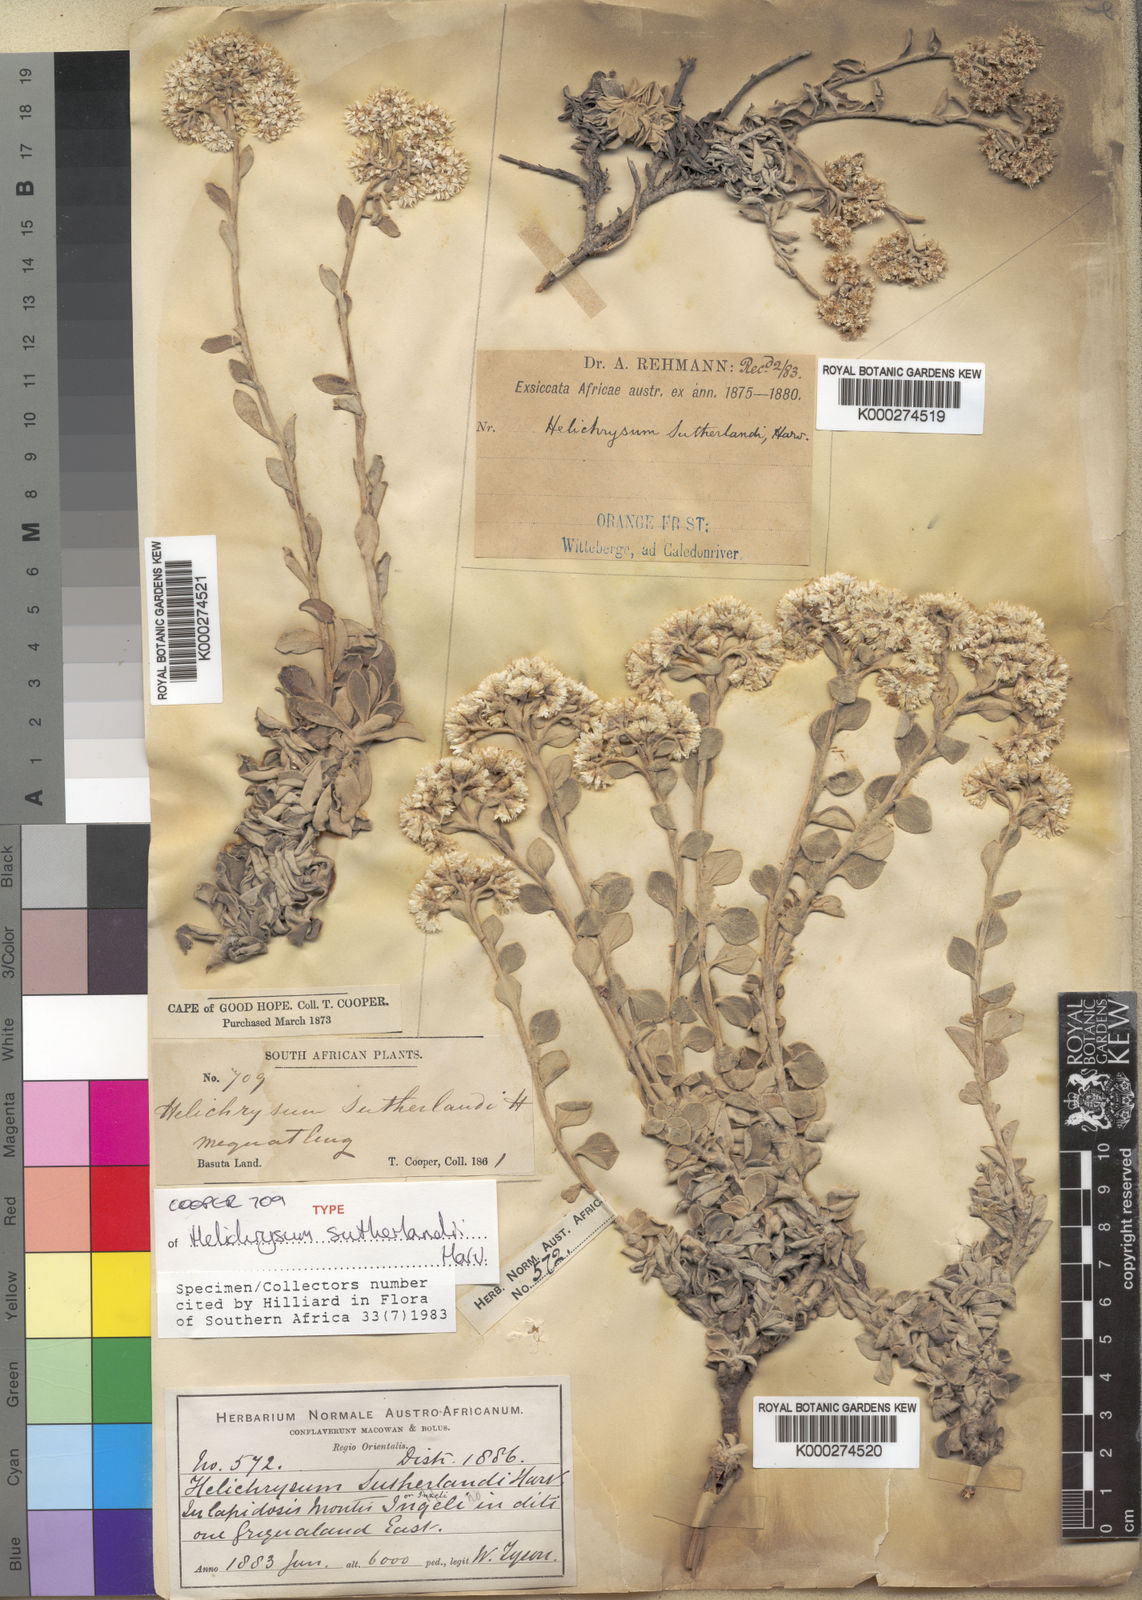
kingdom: Plantae
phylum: Tracheophyta
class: Magnoliopsida
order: Asterales
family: Asteraceae
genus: Helichrysum
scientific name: Helichrysum sutherlandii
